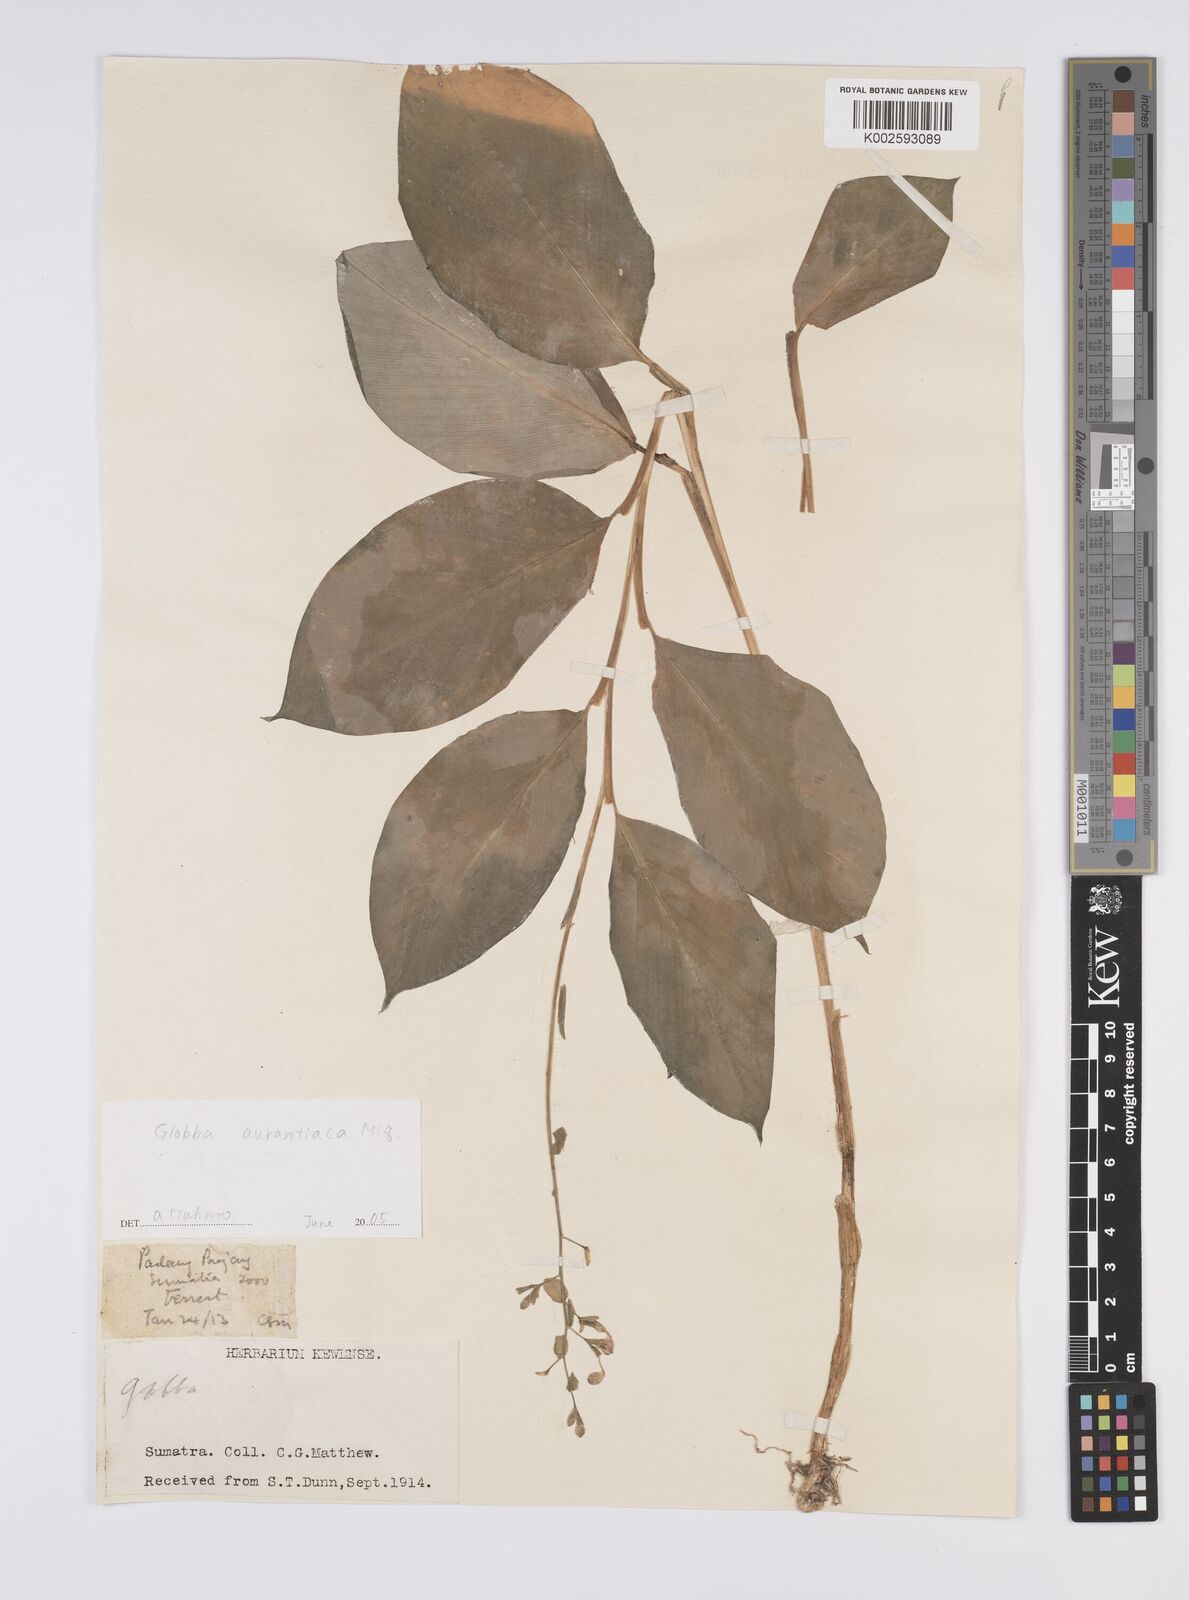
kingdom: Plantae
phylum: Tracheophyta
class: Liliopsida
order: Zingiberales
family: Zingiberaceae
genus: Globba
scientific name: Globba aurantiaca
